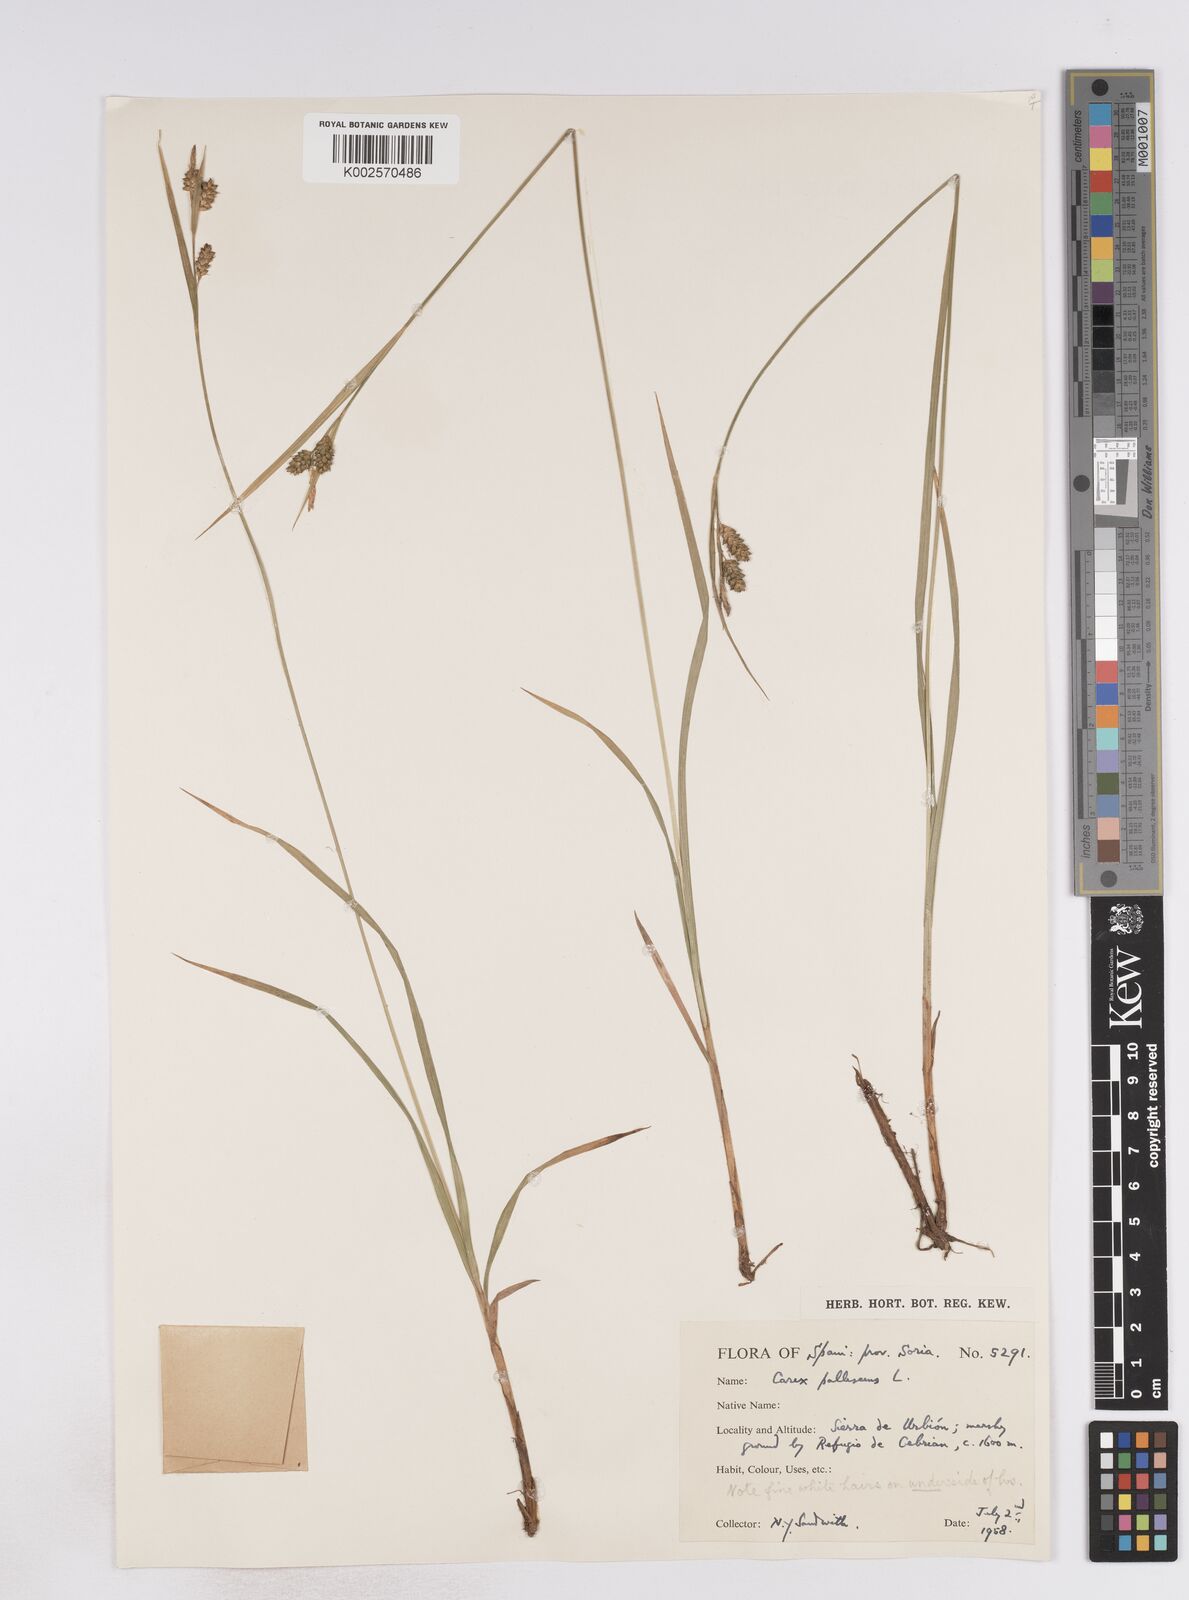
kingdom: Plantae
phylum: Tracheophyta
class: Liliopsida
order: Poales
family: Cyperaceae
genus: Carex
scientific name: Carex pallescens
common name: Pale sedge
